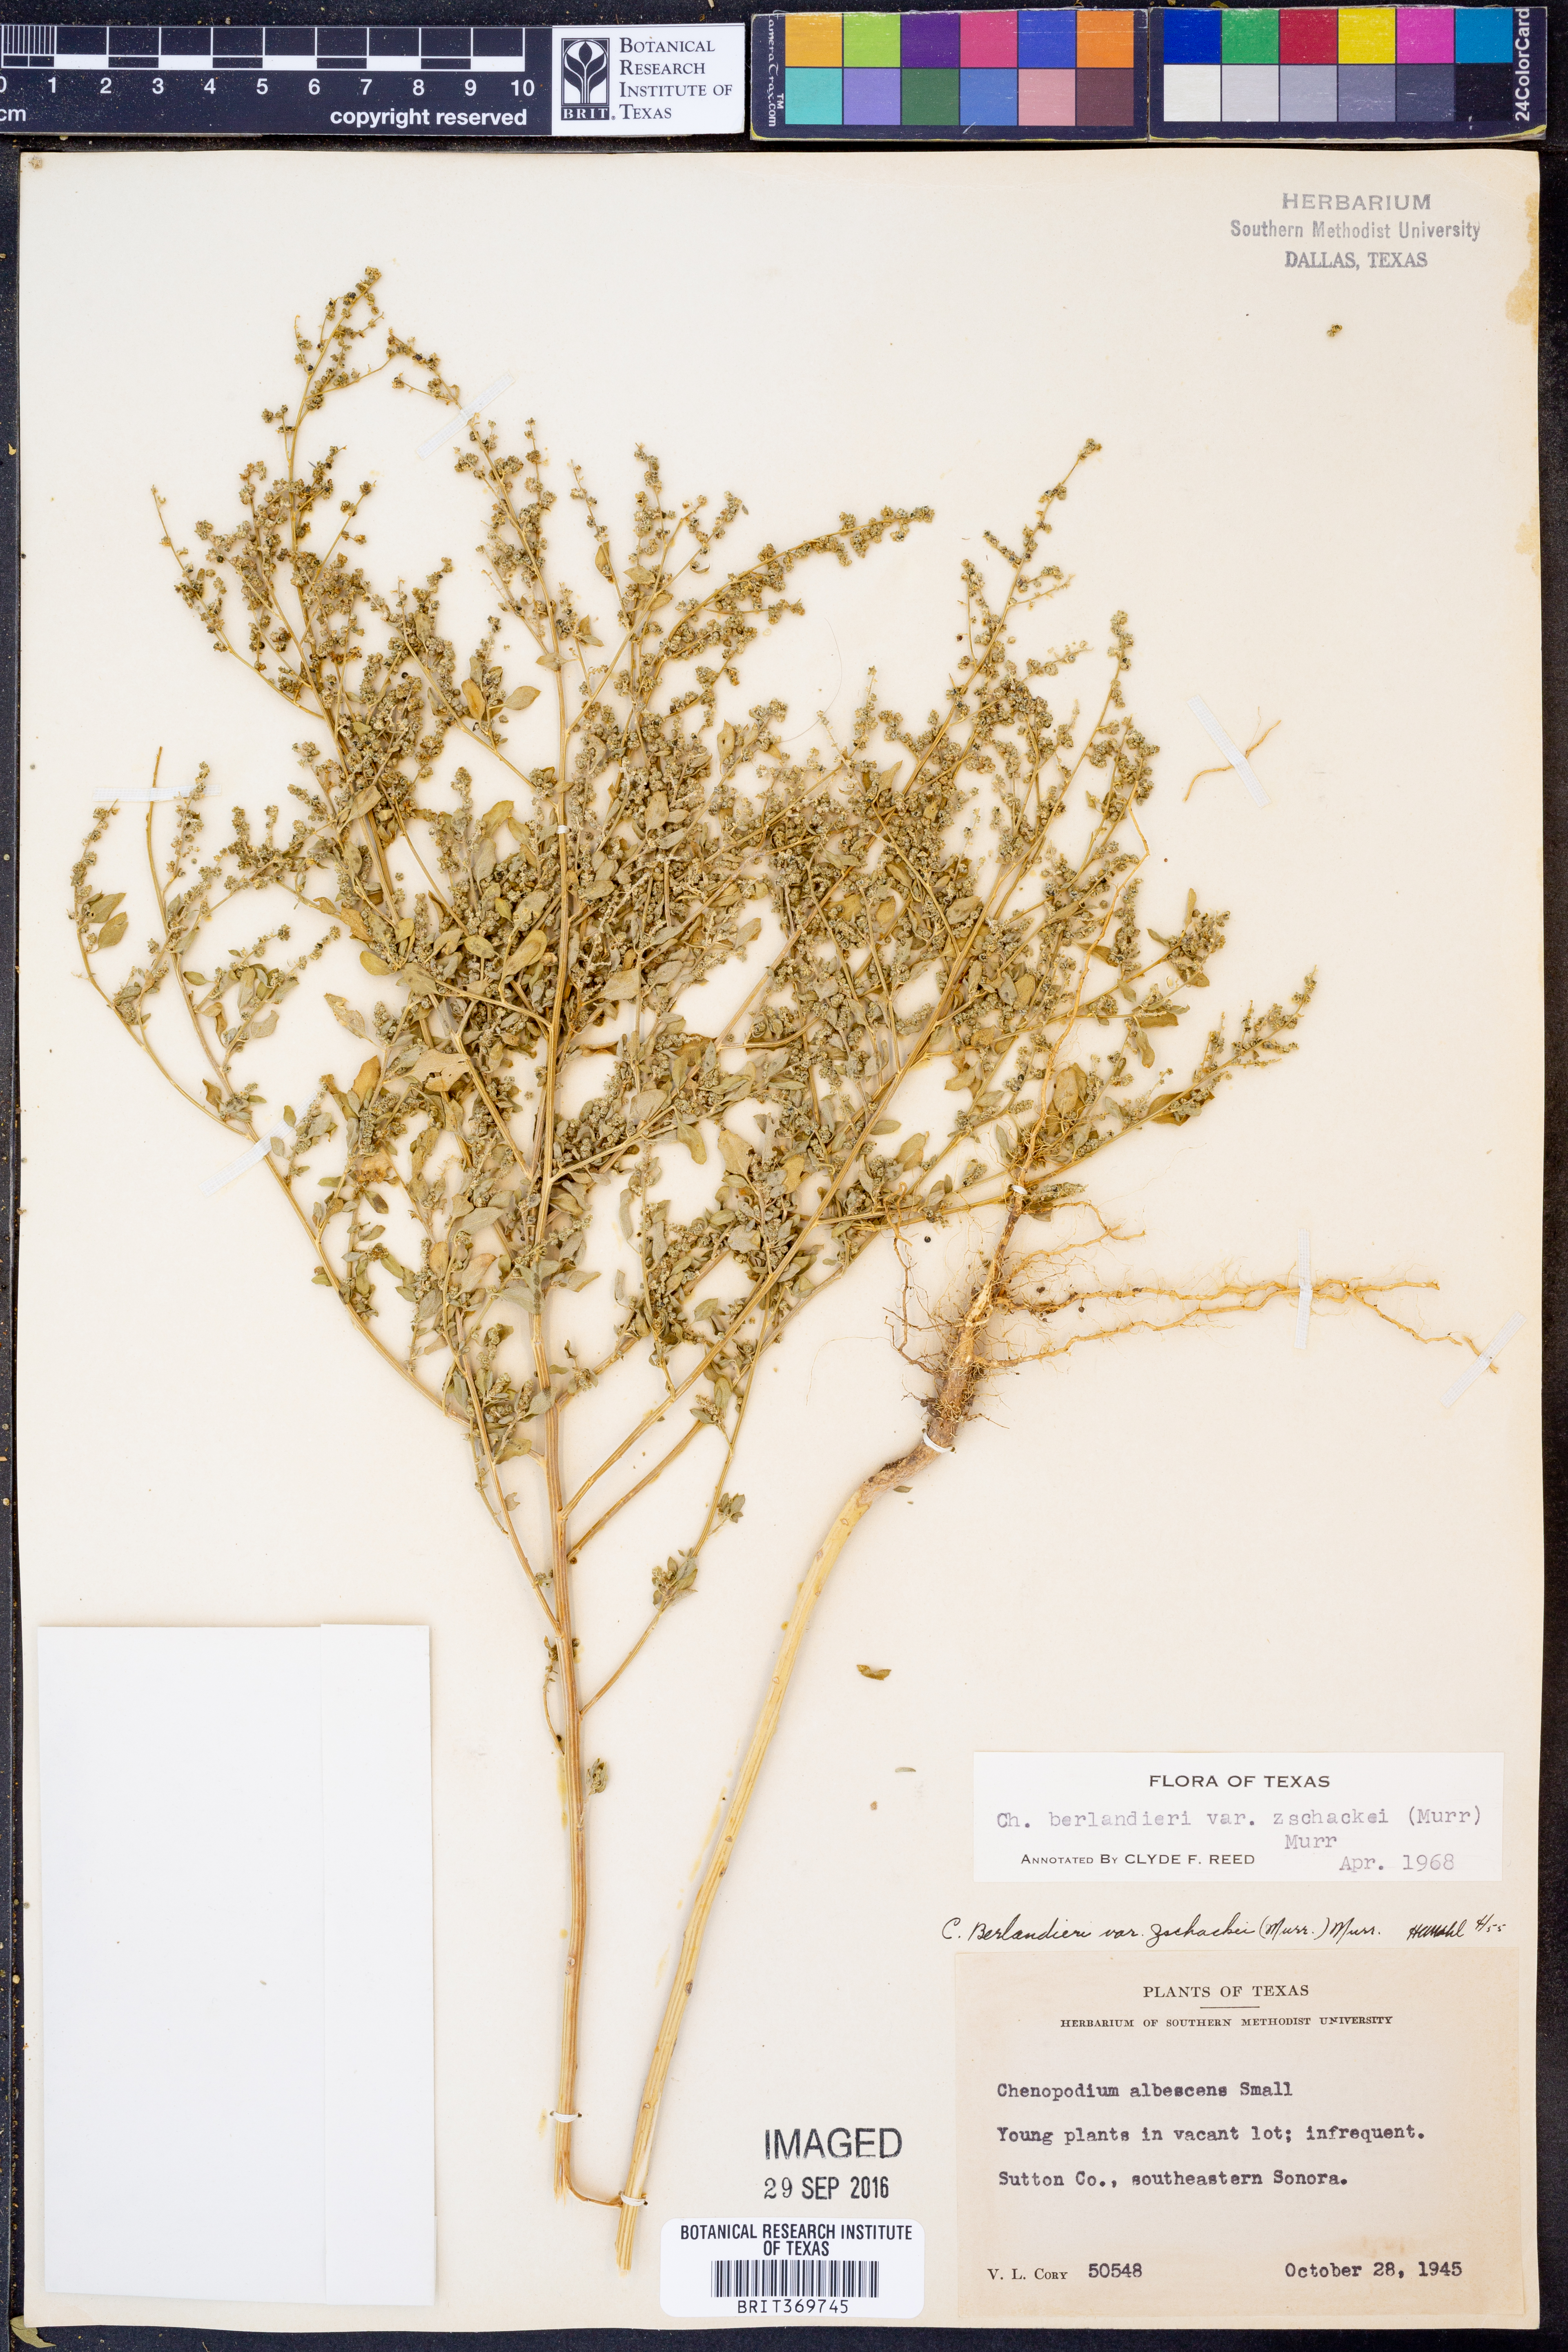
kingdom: Plantae
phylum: Tracheophyta
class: Magnoliopsida
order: Caryophyllales
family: Amaranthaceae
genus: Chenopodium
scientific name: Chenopodium berlandieri
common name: Pit-seed goosefoot
